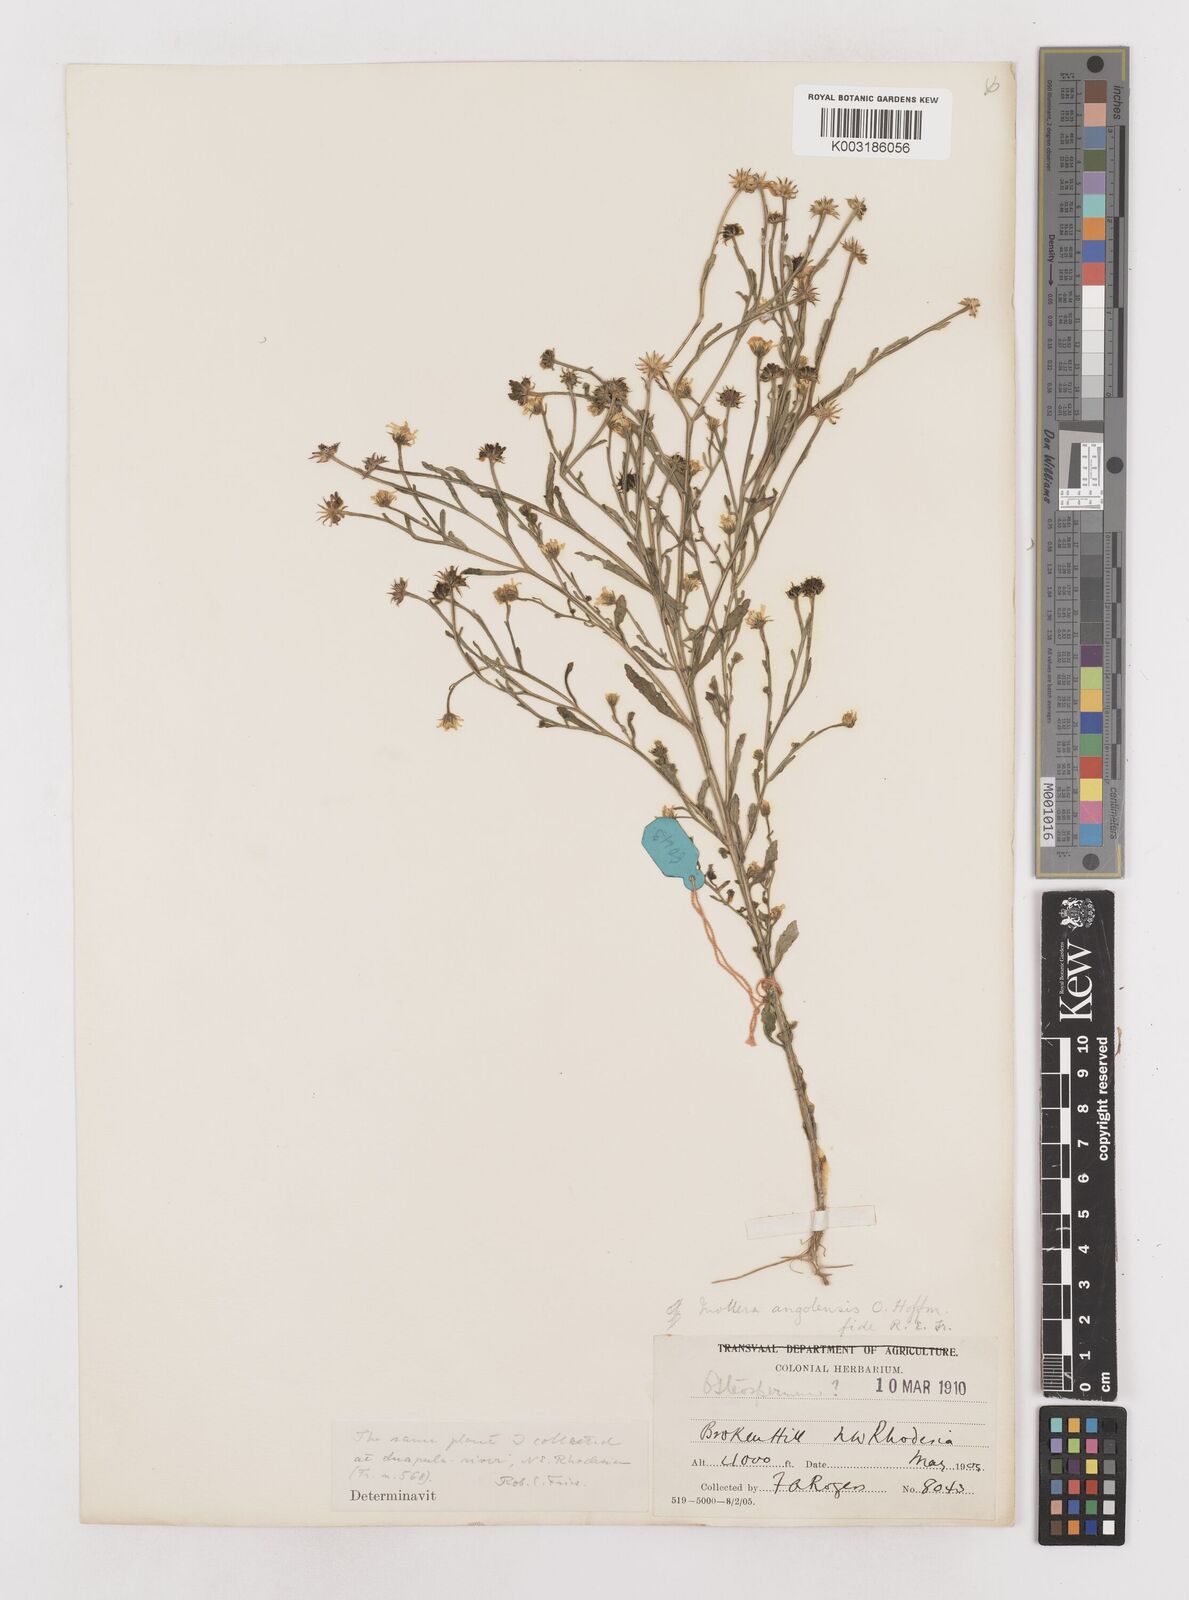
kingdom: Plantae
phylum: Tracheophyta
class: Magnoliopsida
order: Asterales
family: Asteraceae
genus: Calostephane
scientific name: Calostephane angolensis
